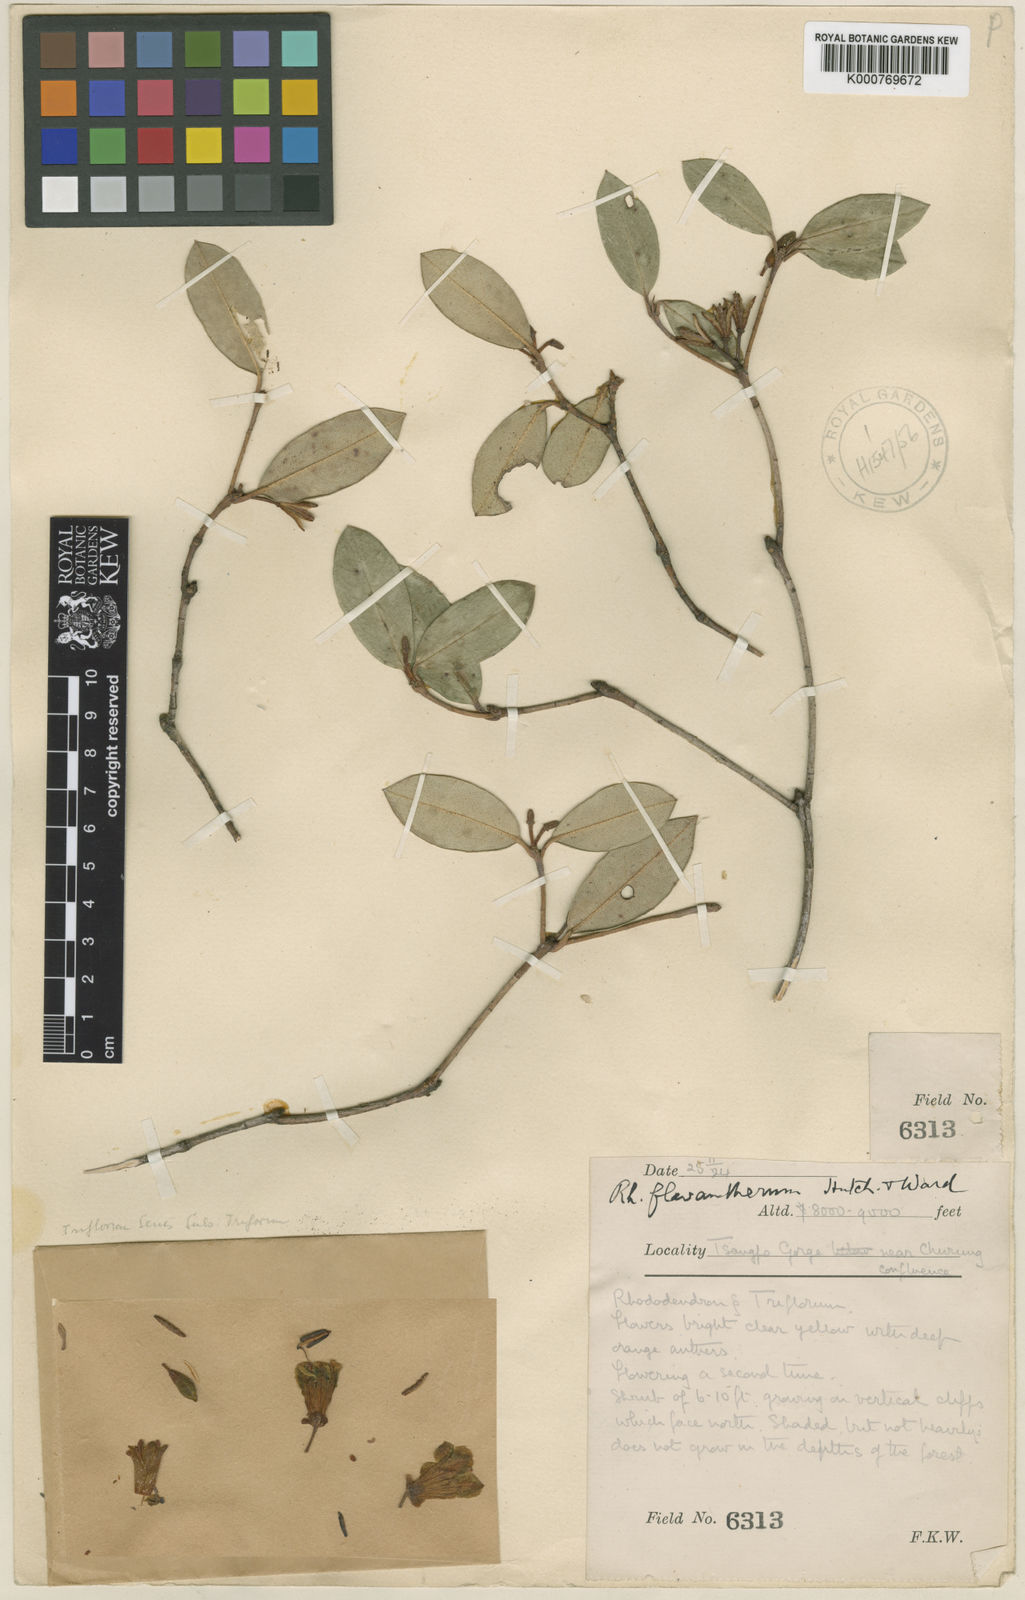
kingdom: Plantae
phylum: Tracheophyta
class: Magnoliopsida
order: Ericales
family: Ericaceae
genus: Rhododendron
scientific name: Rhododendron flavantherum
